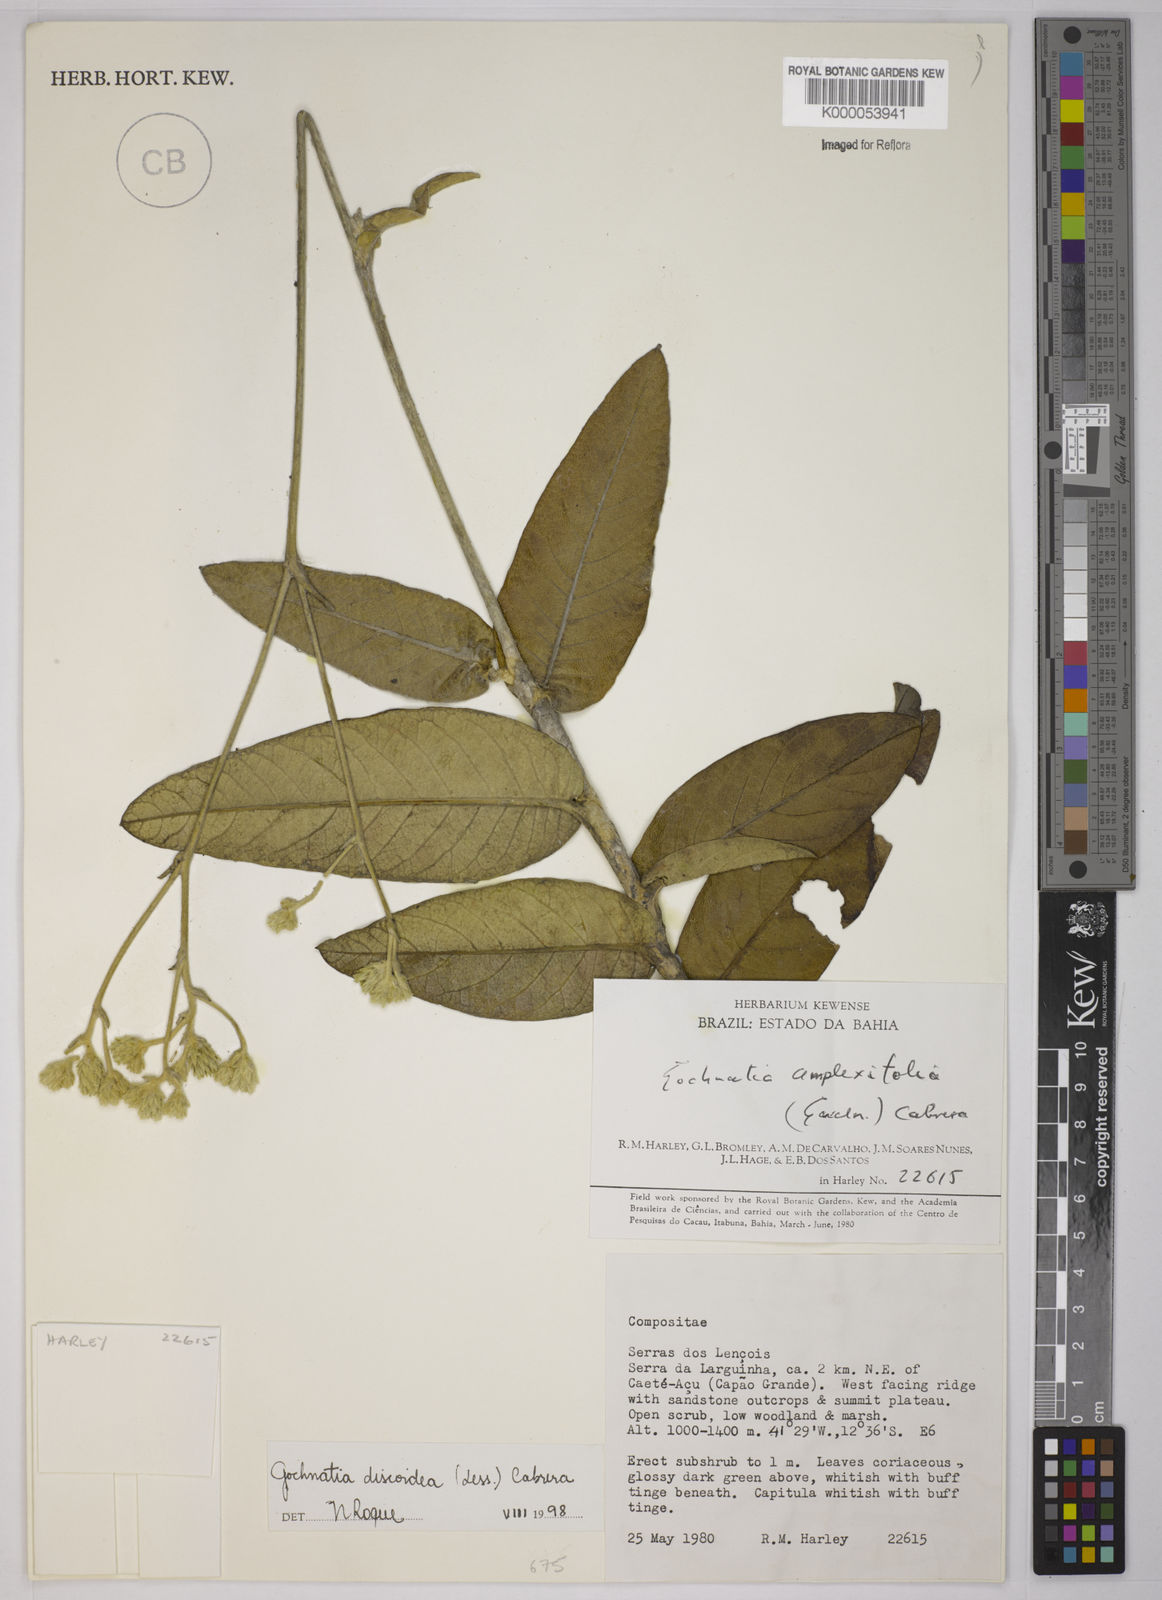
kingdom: Plantae
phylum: Tracheophyta
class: Magnoliopsida
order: Asterales
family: Asteraceae
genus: Richterago
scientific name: Richterago discoidea
